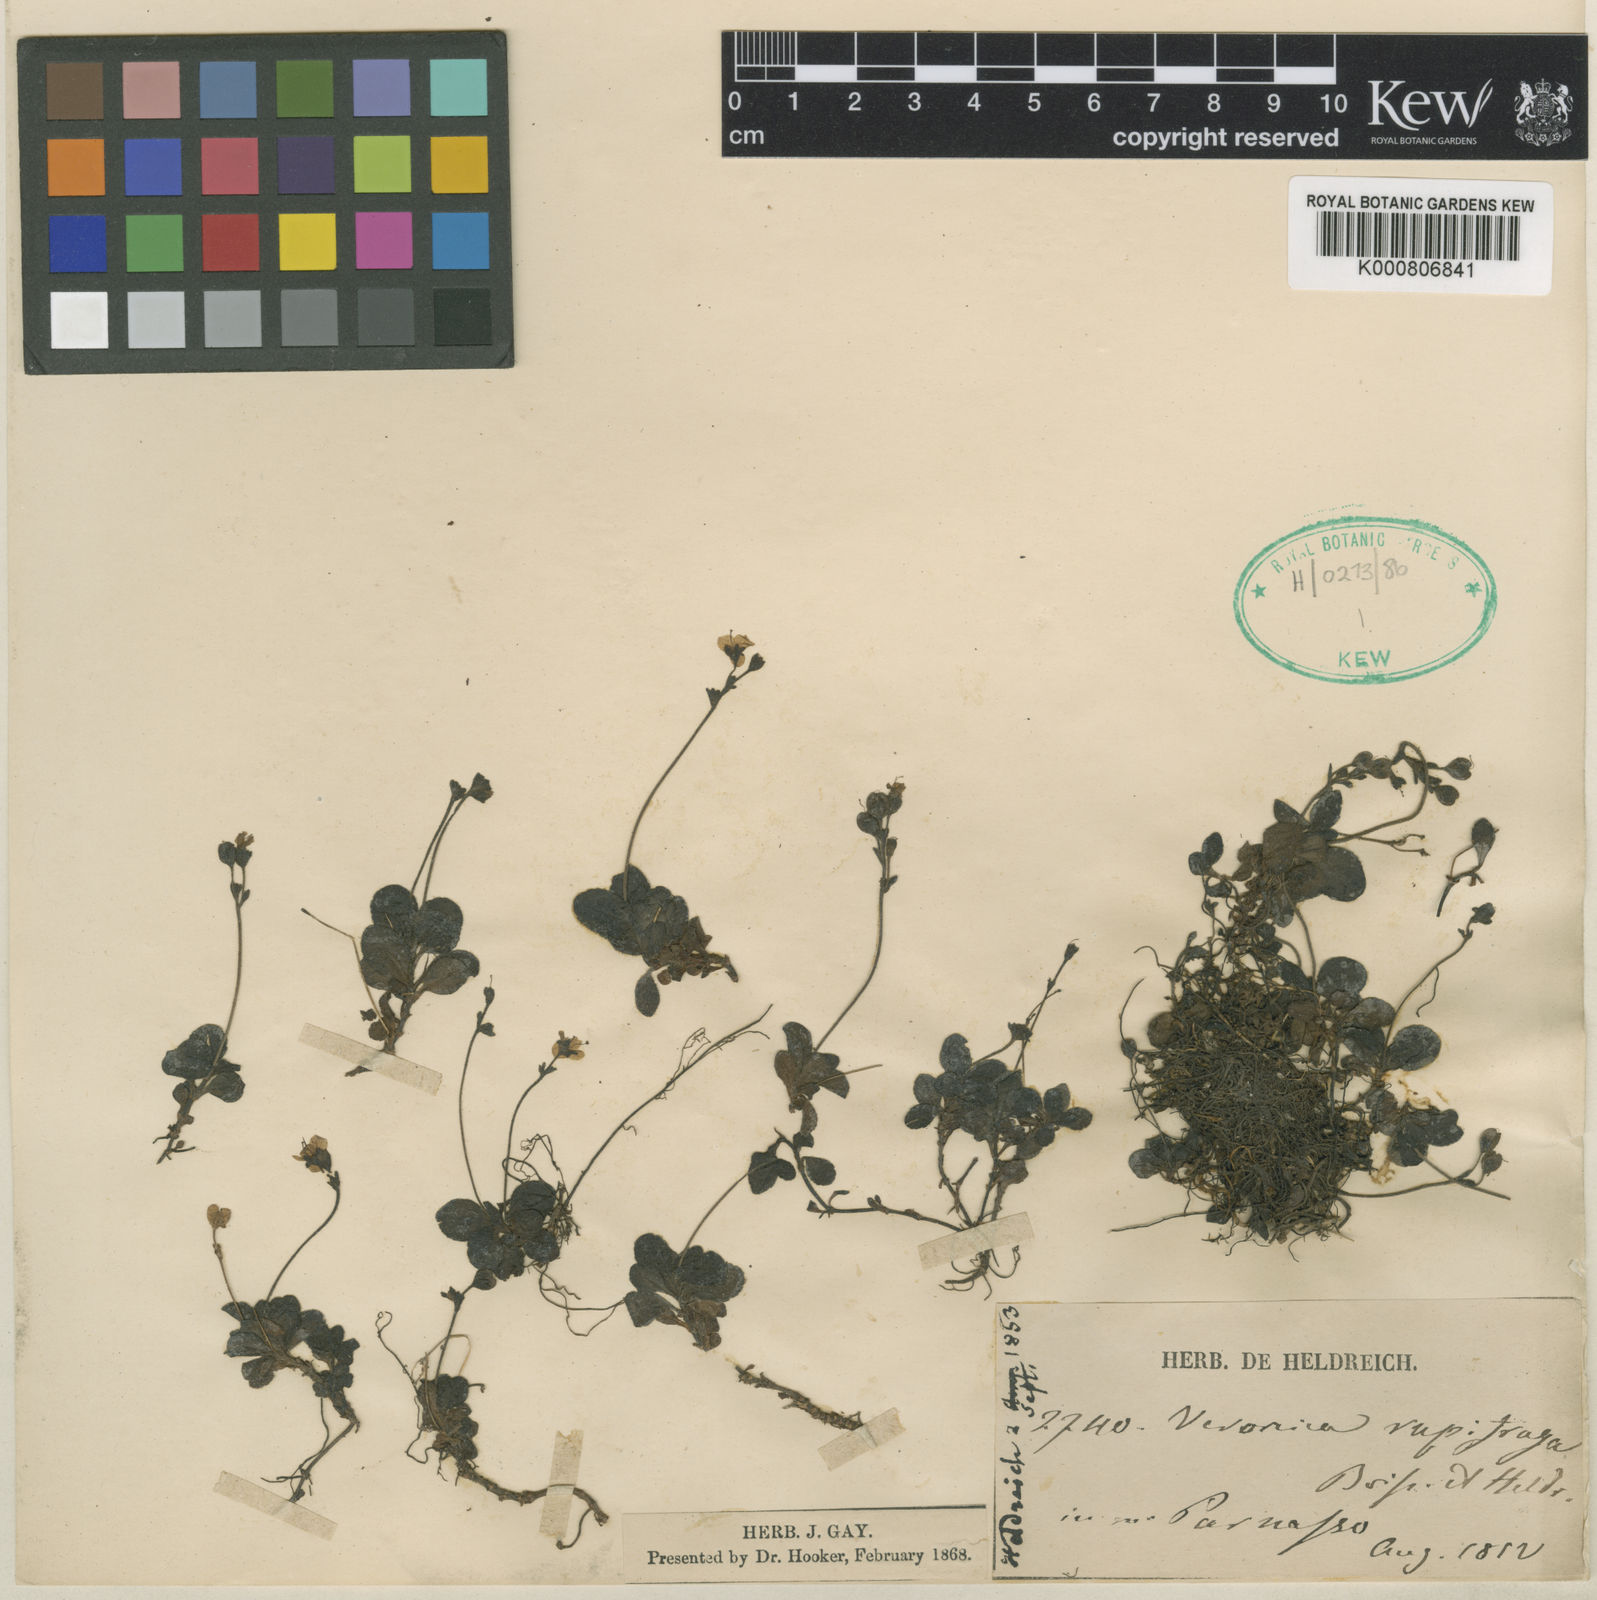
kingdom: Plantae
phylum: Tracheophyta
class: Magnoliopsida
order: Lamiales
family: Plantaginaceae
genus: Veronica
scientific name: Veronica
